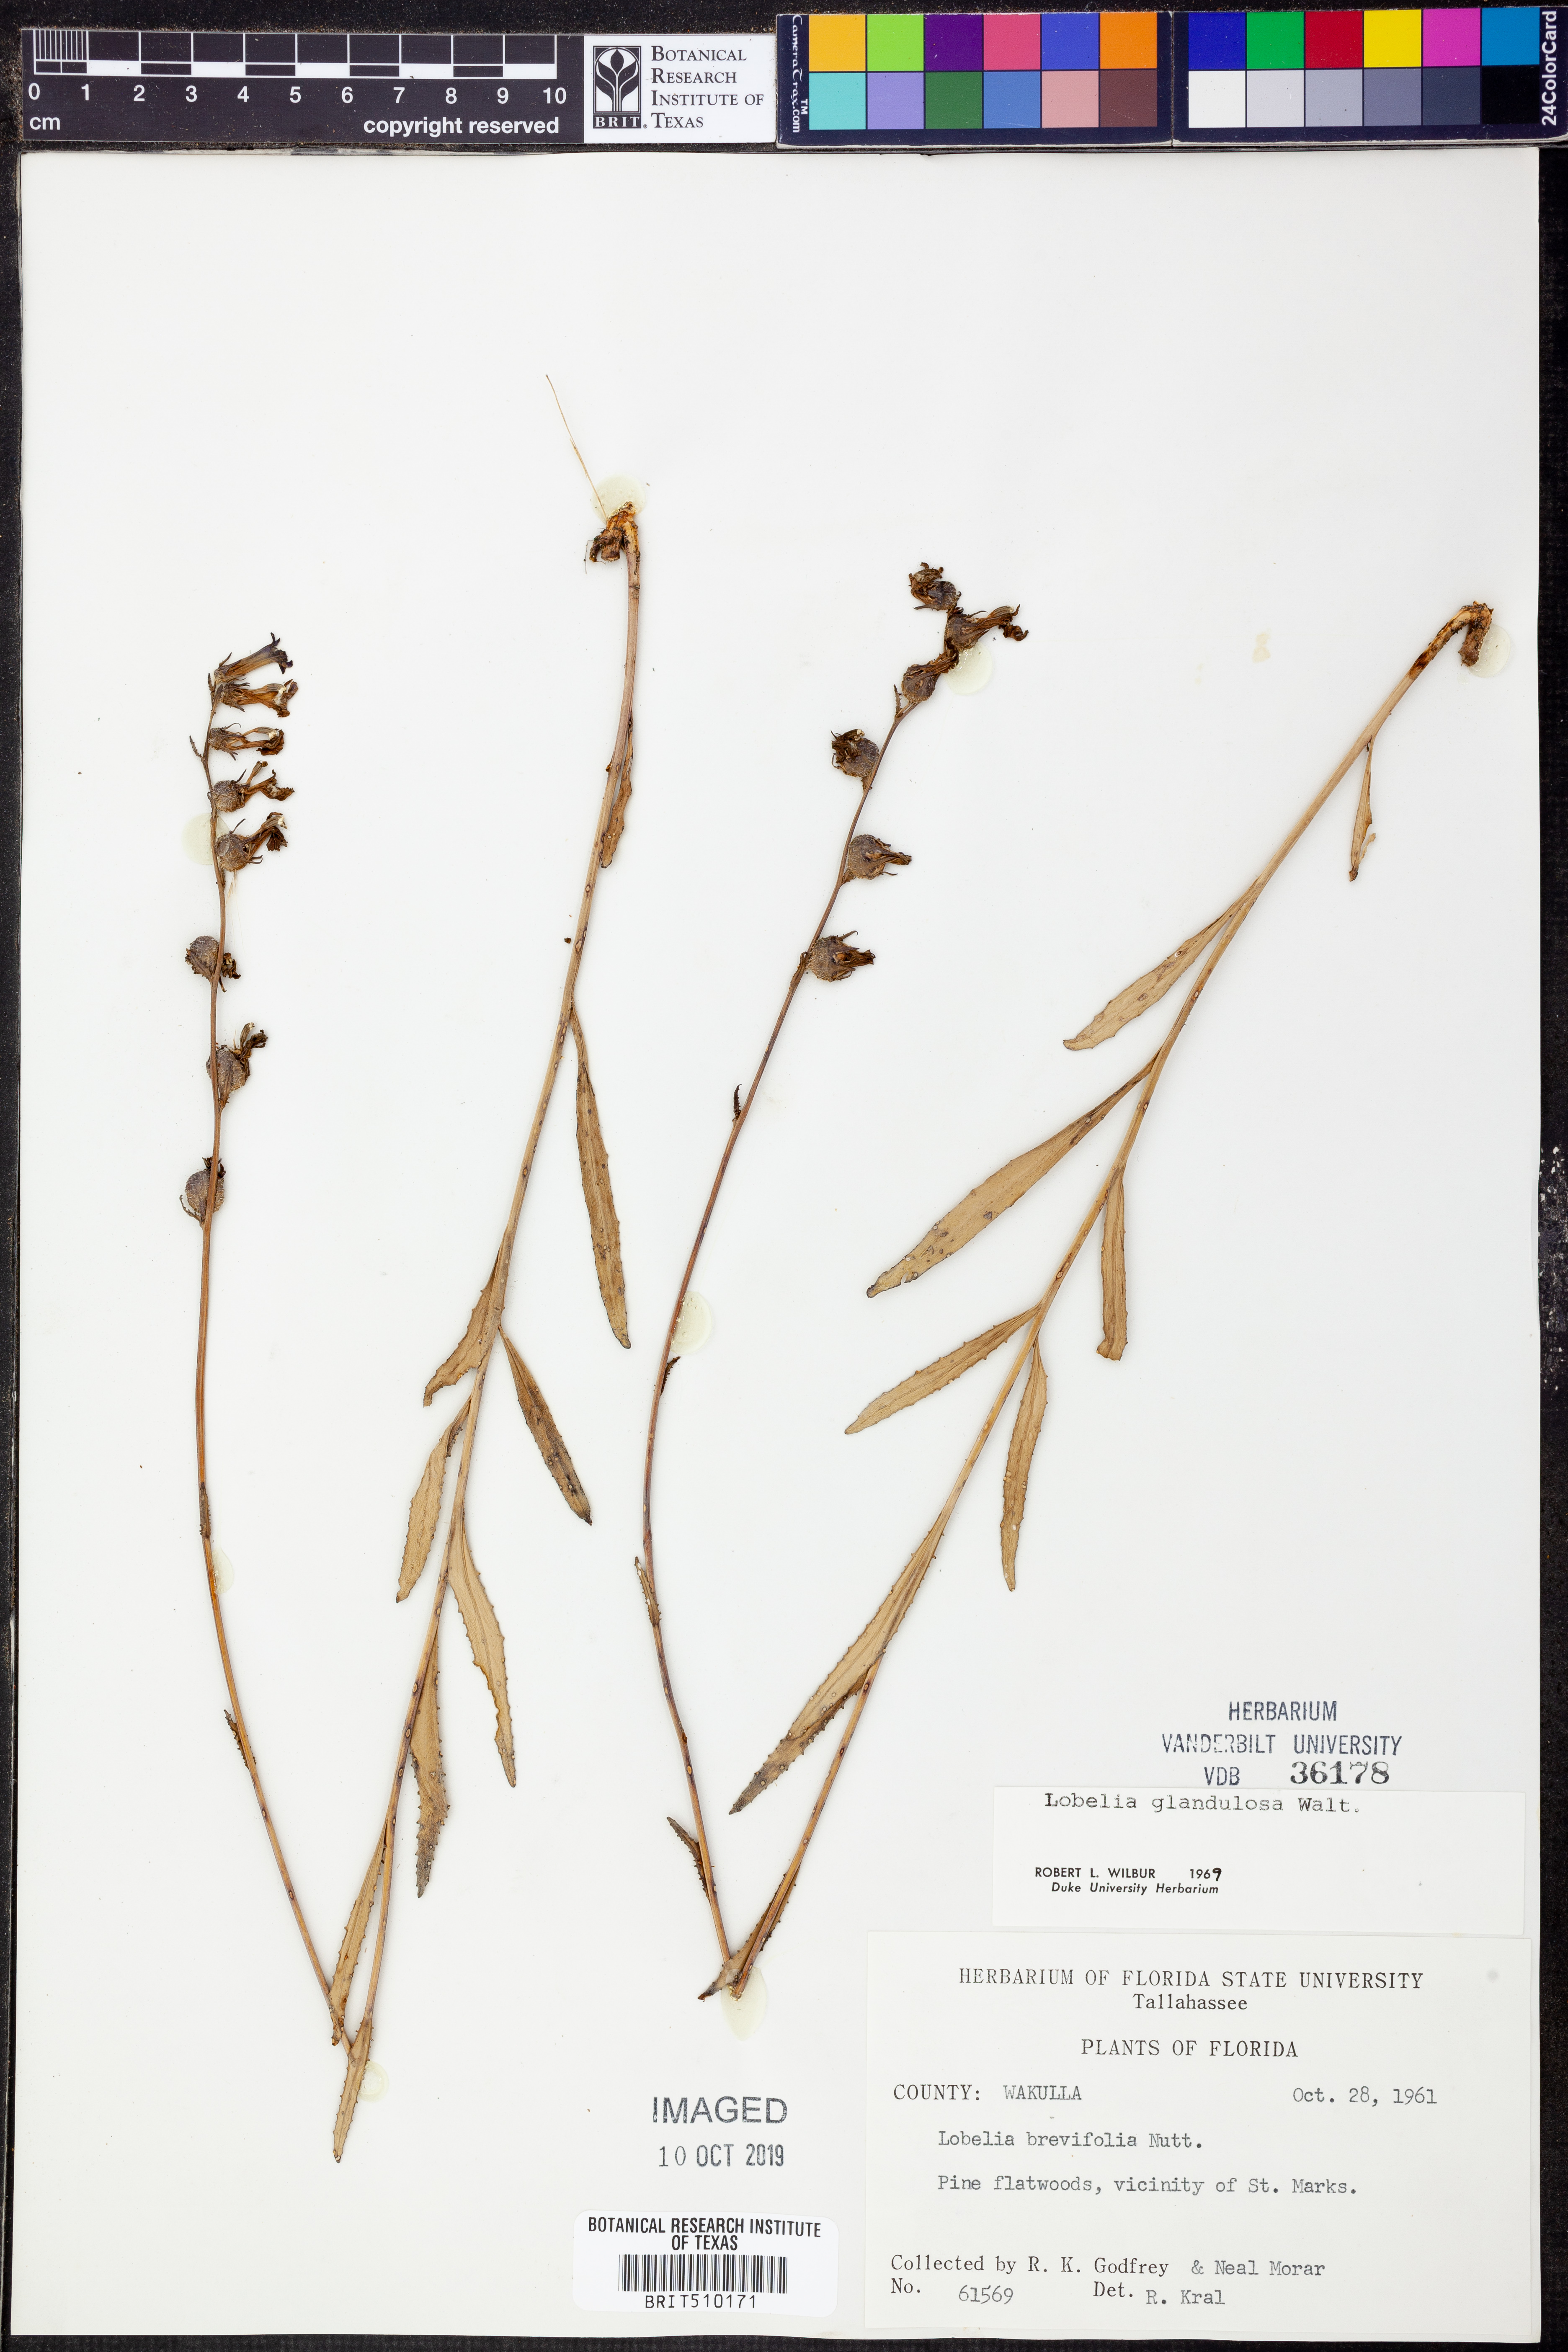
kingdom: Plantae
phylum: Tracheophyta
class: Magnoliopsida
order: Asterales
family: Campanulaceae
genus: Lobelia
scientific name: Lobelia glandulosa
